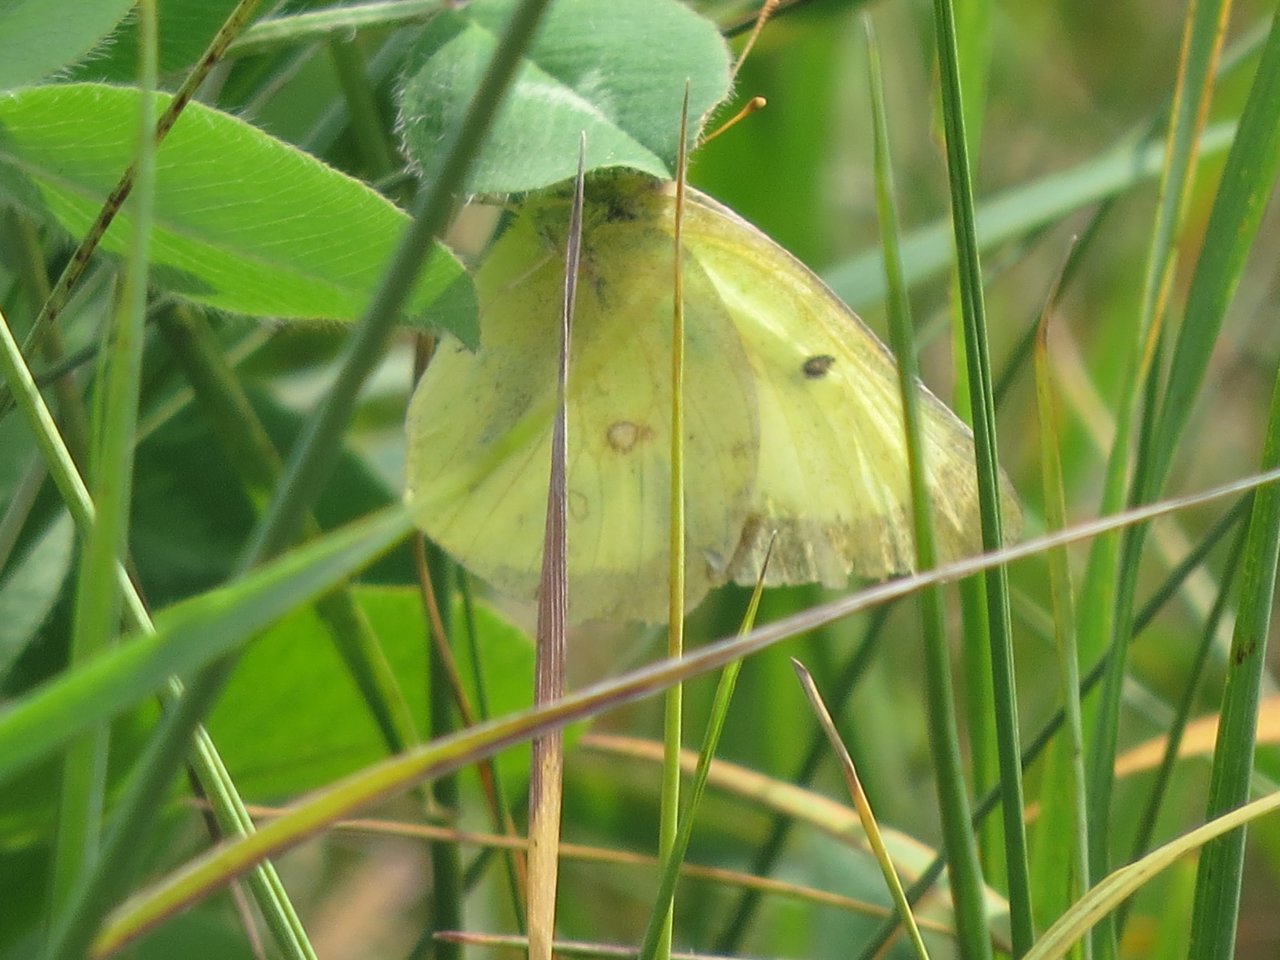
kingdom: Animalia
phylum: Arthropoda
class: Insecta
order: Lepidoptera
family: Pieridae
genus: Colias
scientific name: Colias philodice
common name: Clouded Sulphur
